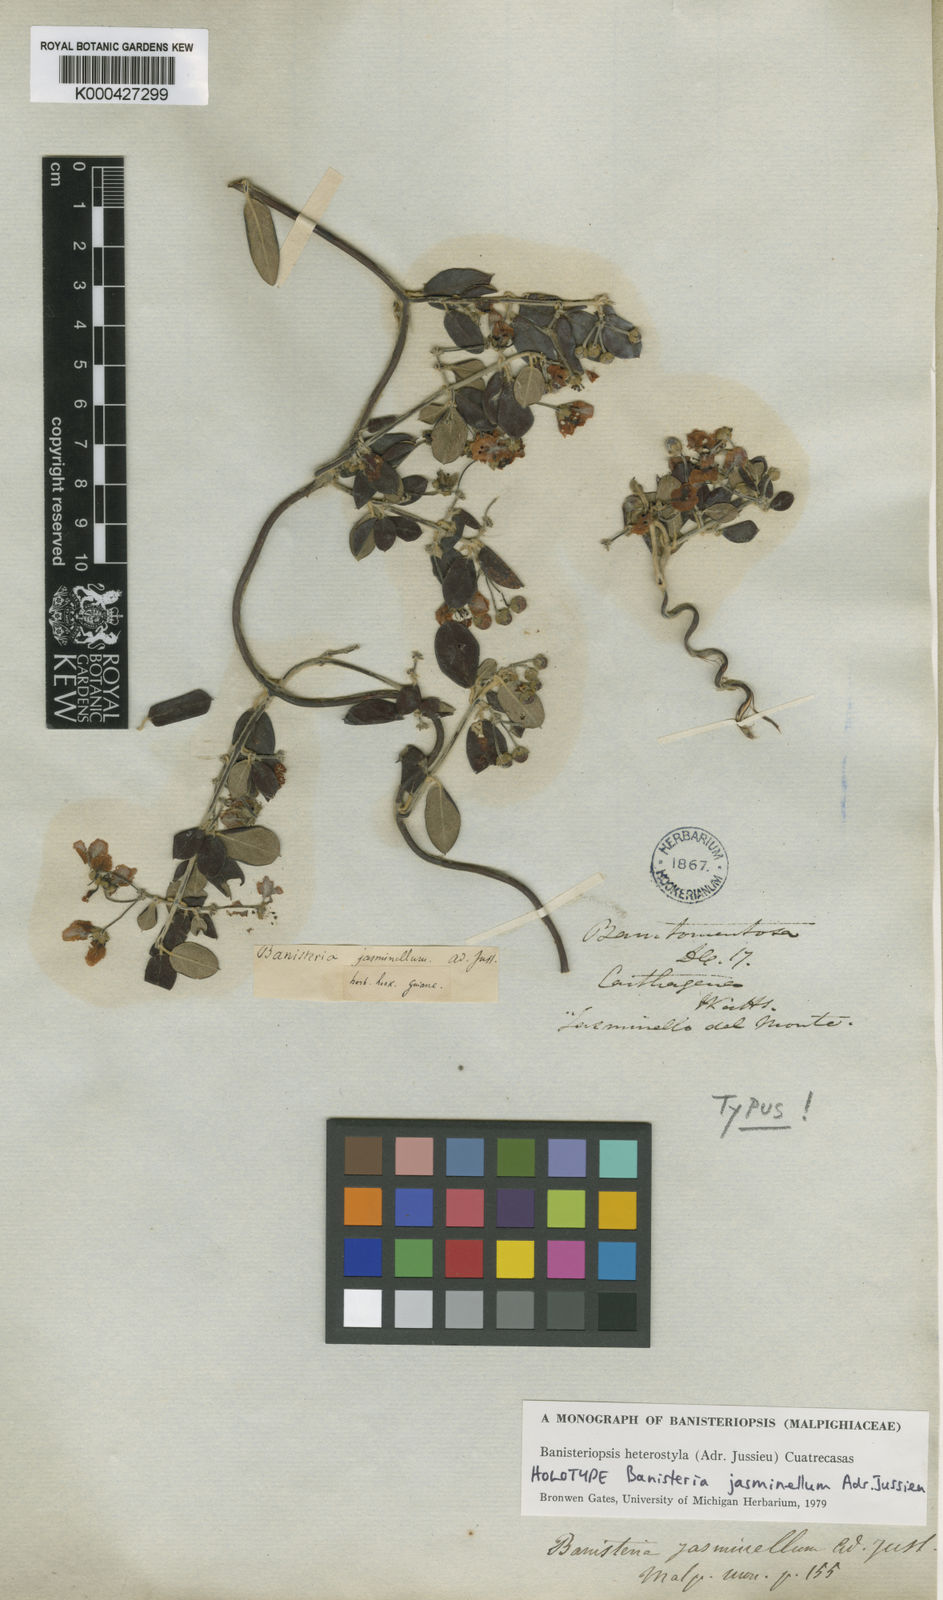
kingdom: Plantae
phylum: Tracheophyta
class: Magnoliopsida
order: Malpighiales
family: Malpighiaceae
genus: Diplopterys
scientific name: Diplopterys heterostyla
